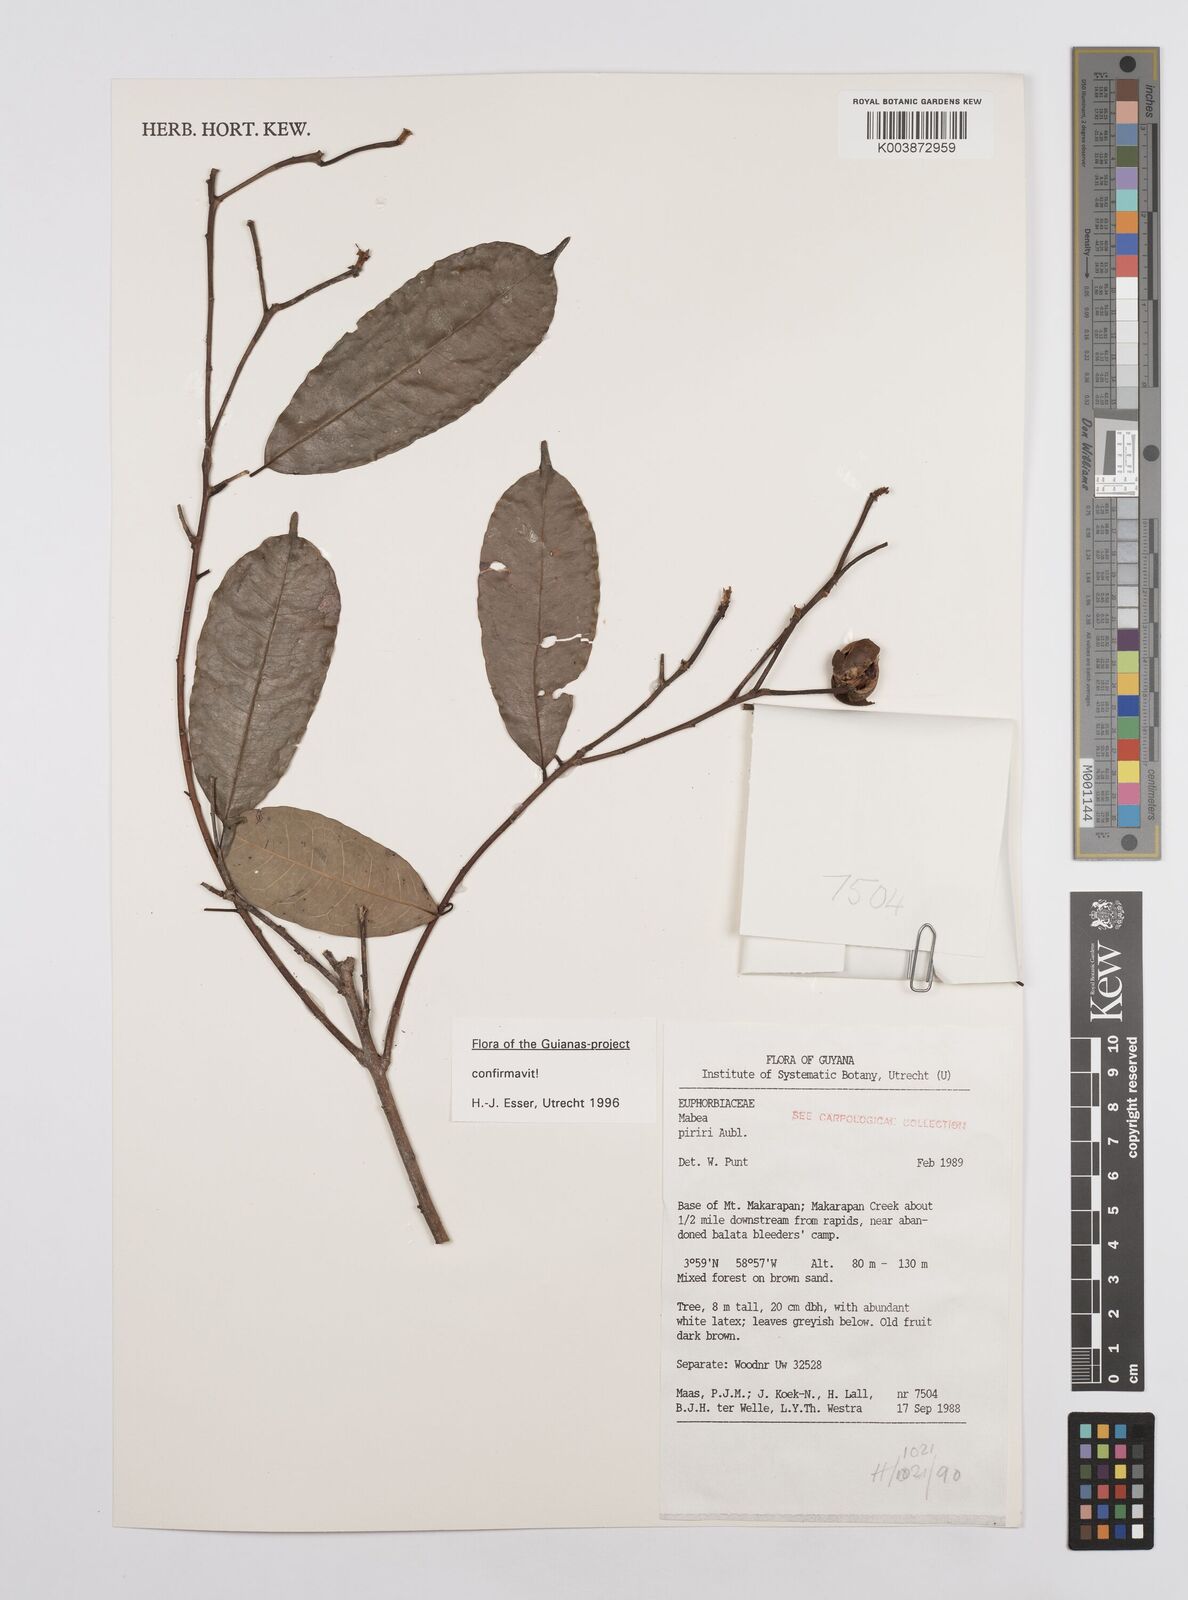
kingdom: Plantae
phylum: Tracheophyta
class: Magnoliopsida
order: Malpighiales
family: Euphorbiaceae
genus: Mabea
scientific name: Mabea piriri
